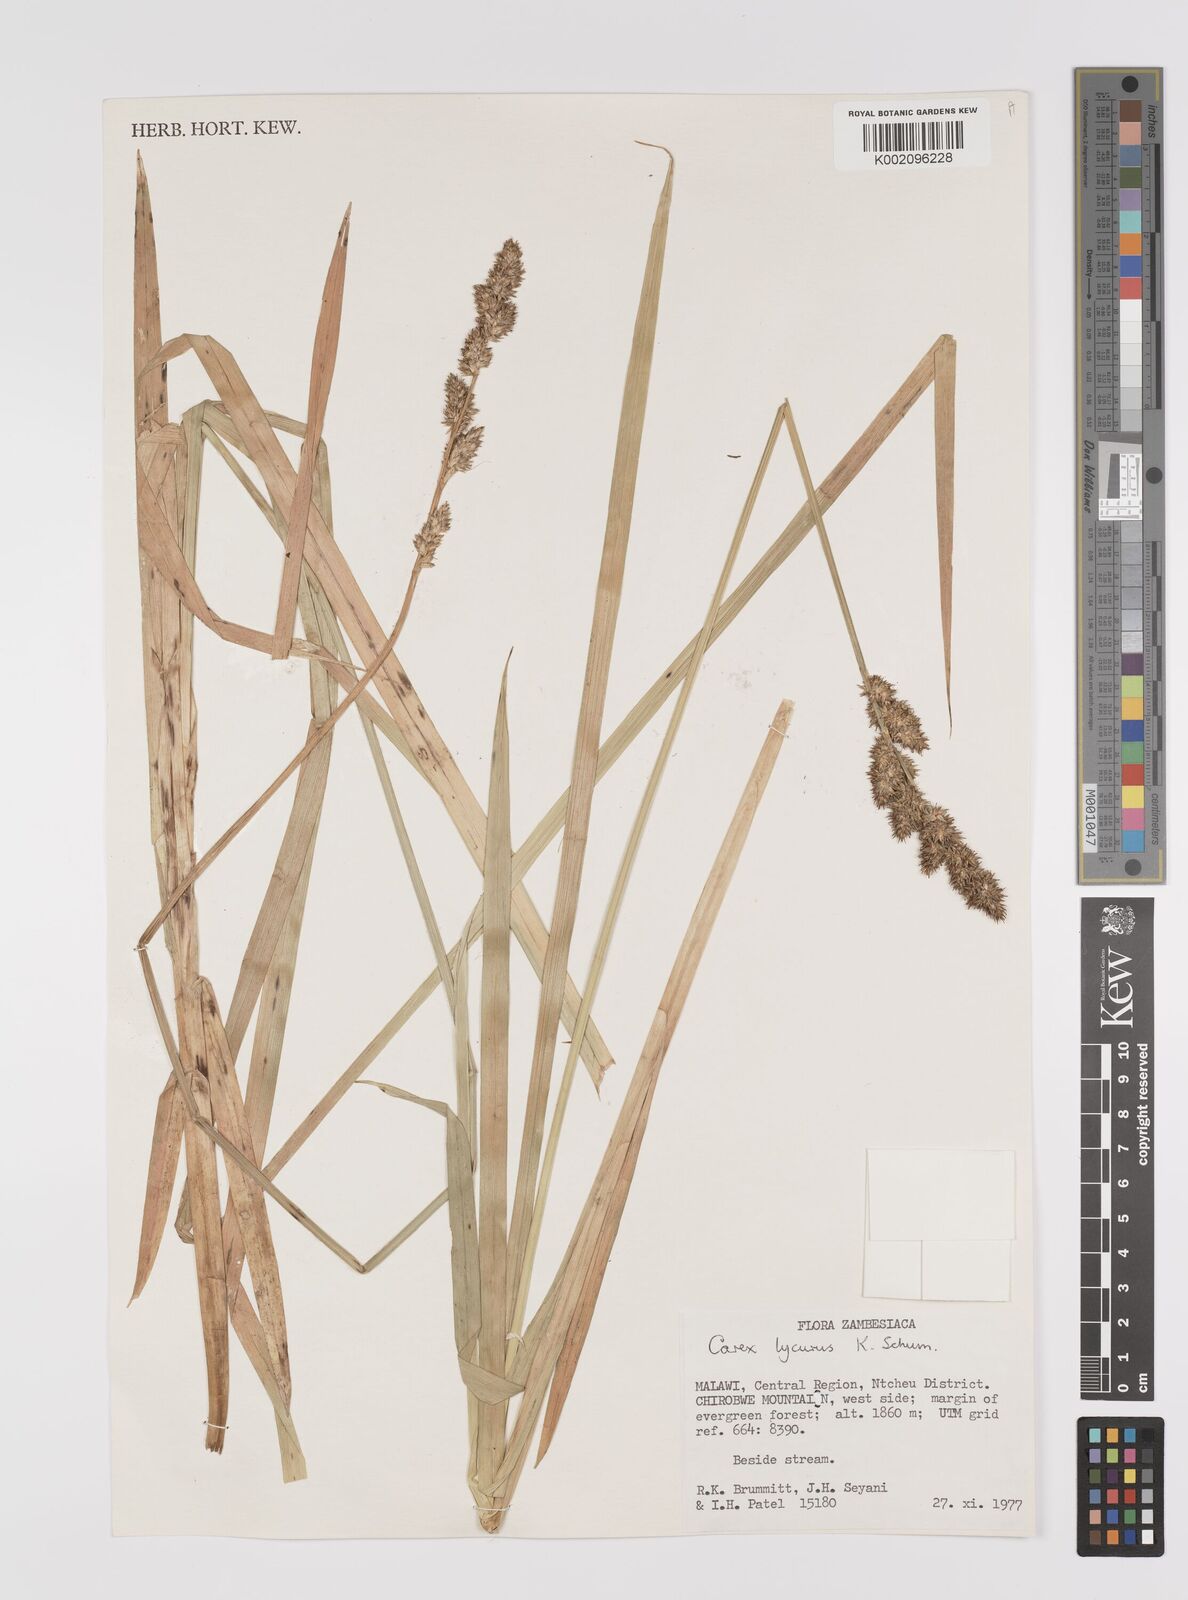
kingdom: Plantae
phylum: Tracheophyta
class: Liliopsida
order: Poales
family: Cyperaceae
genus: Carex
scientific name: Carex lycurus
